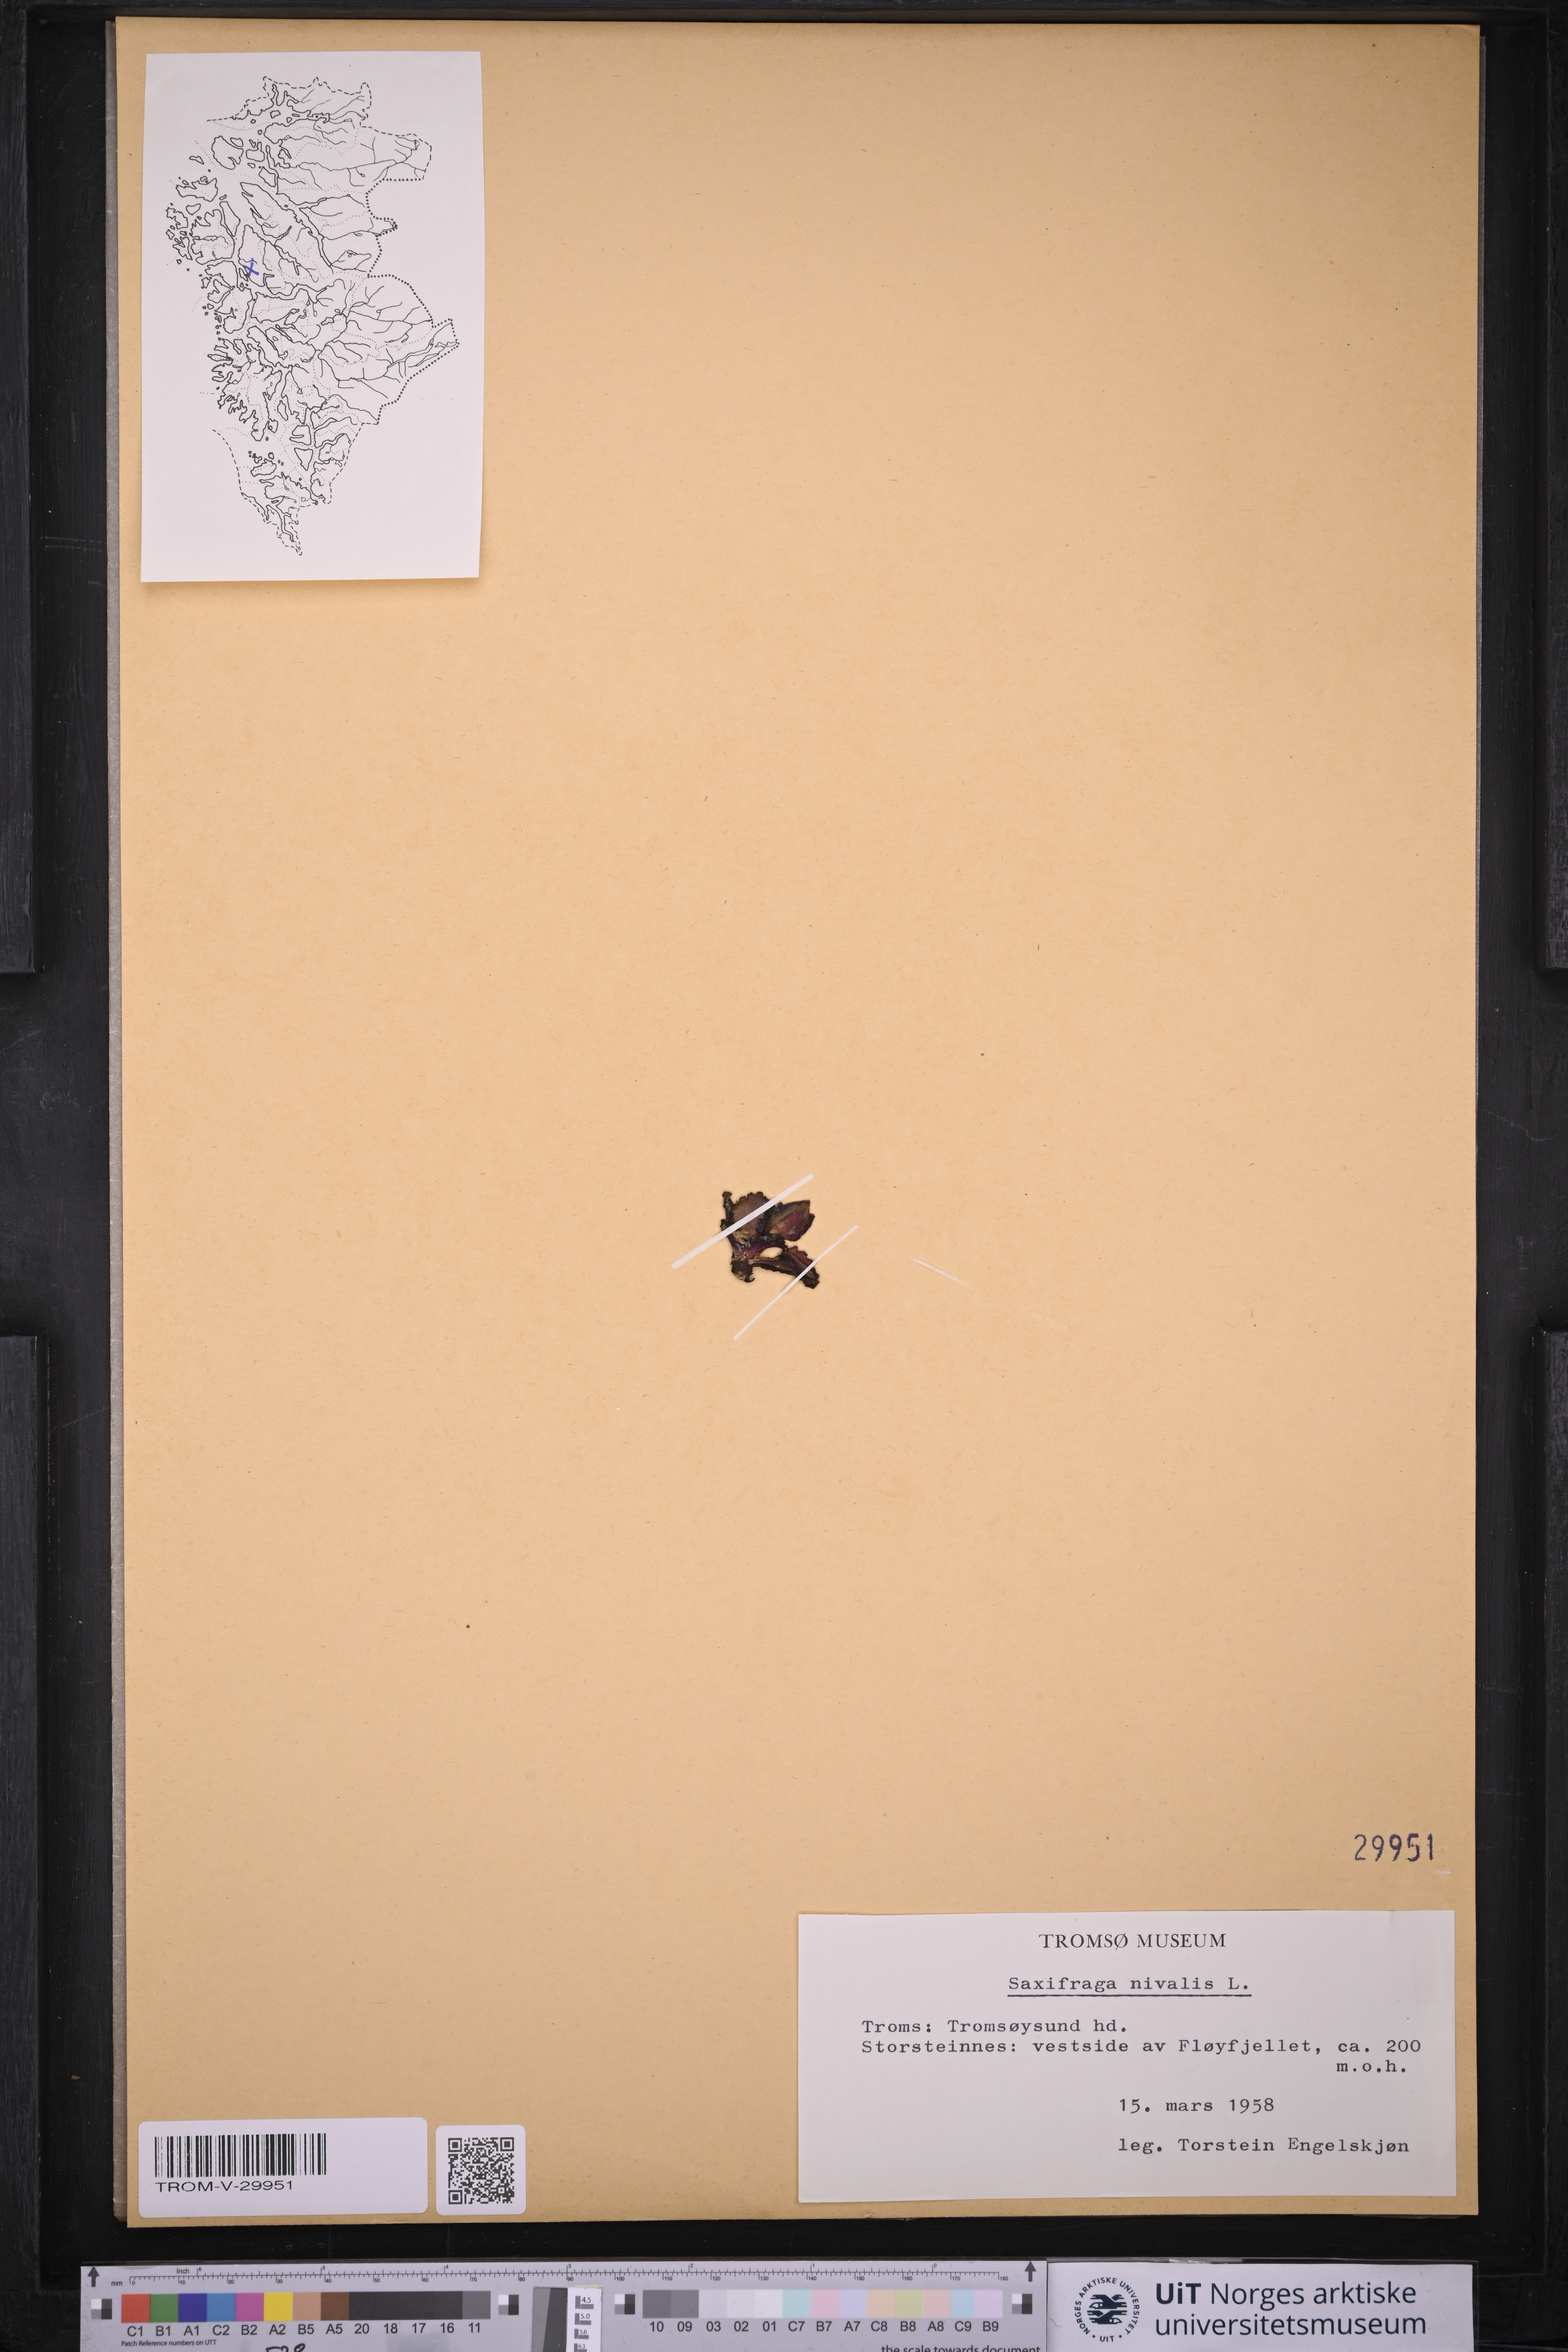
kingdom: Plantae
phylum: Tracheophyta
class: Magnoliopsida
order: Saxifragales
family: Saxifragaceae
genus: Micranthes
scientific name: Micranthes nivalis
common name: Alpine saxifrage
